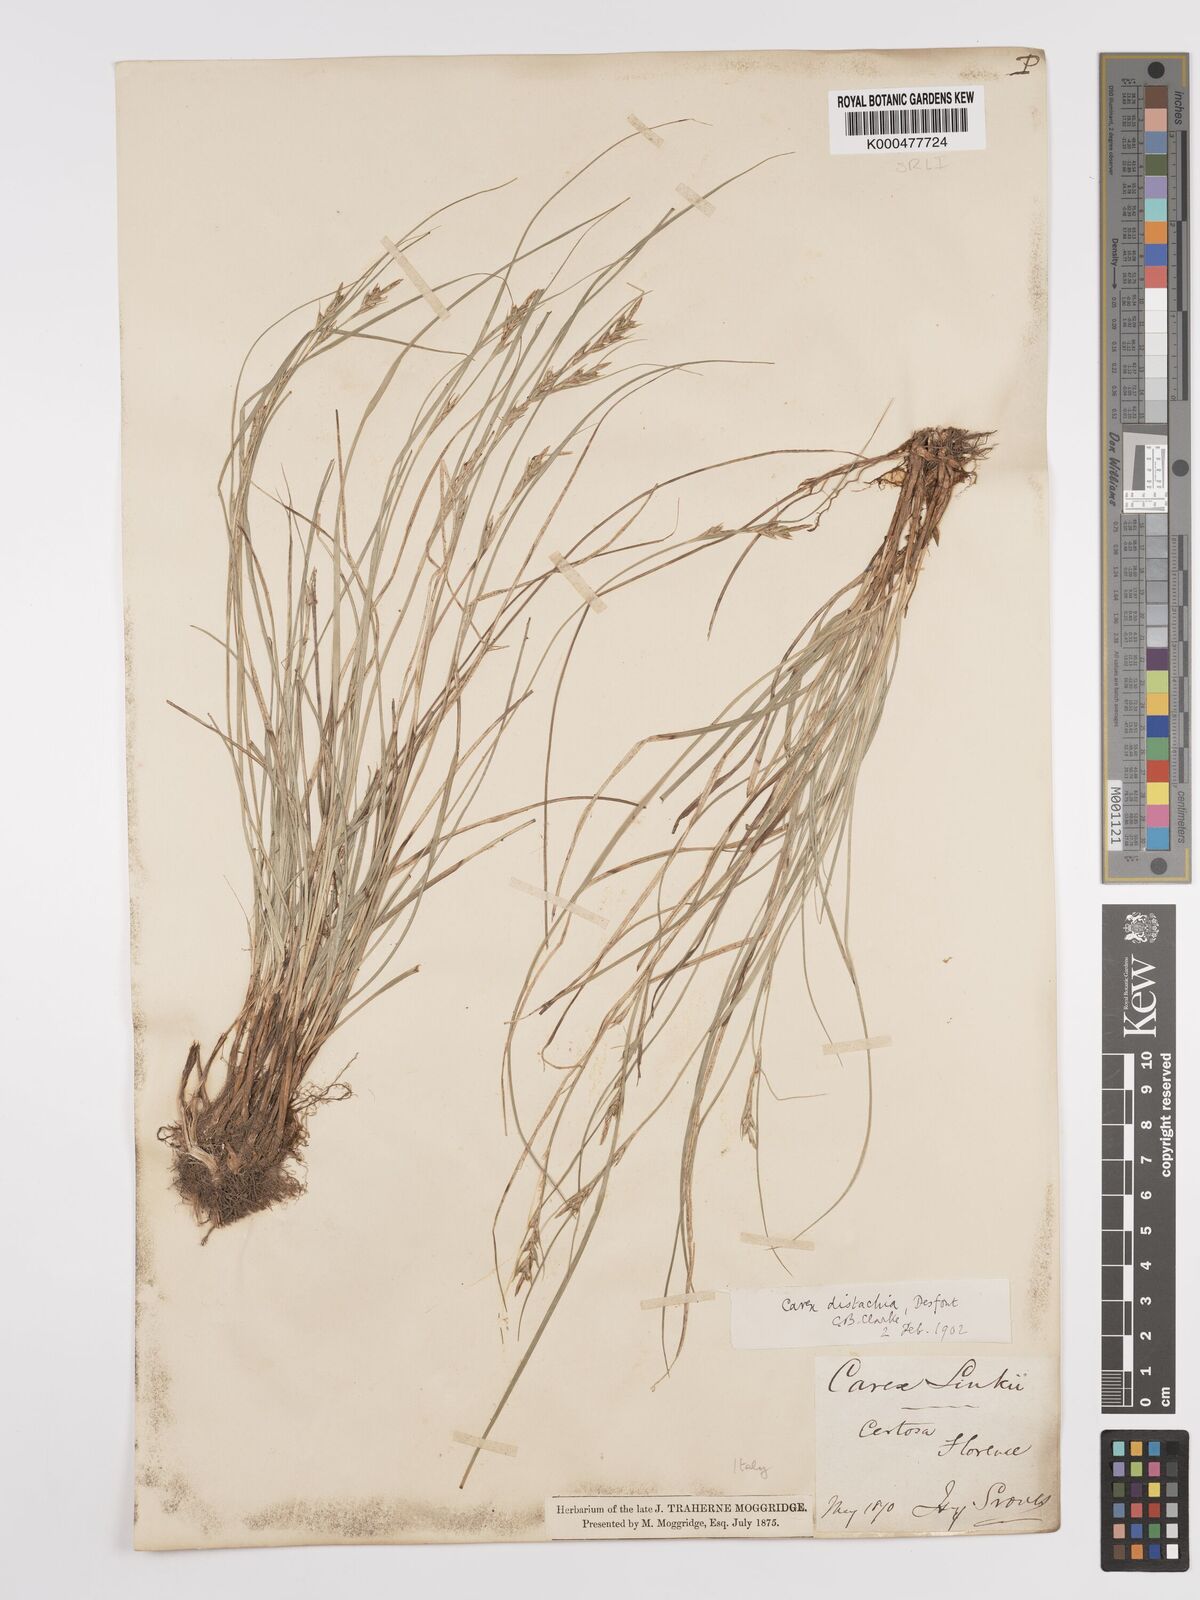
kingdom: Plantae
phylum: Tracheophyta
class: Liliopsida
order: Poales
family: Cyperaceae
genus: Carex
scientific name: Carex distachya
